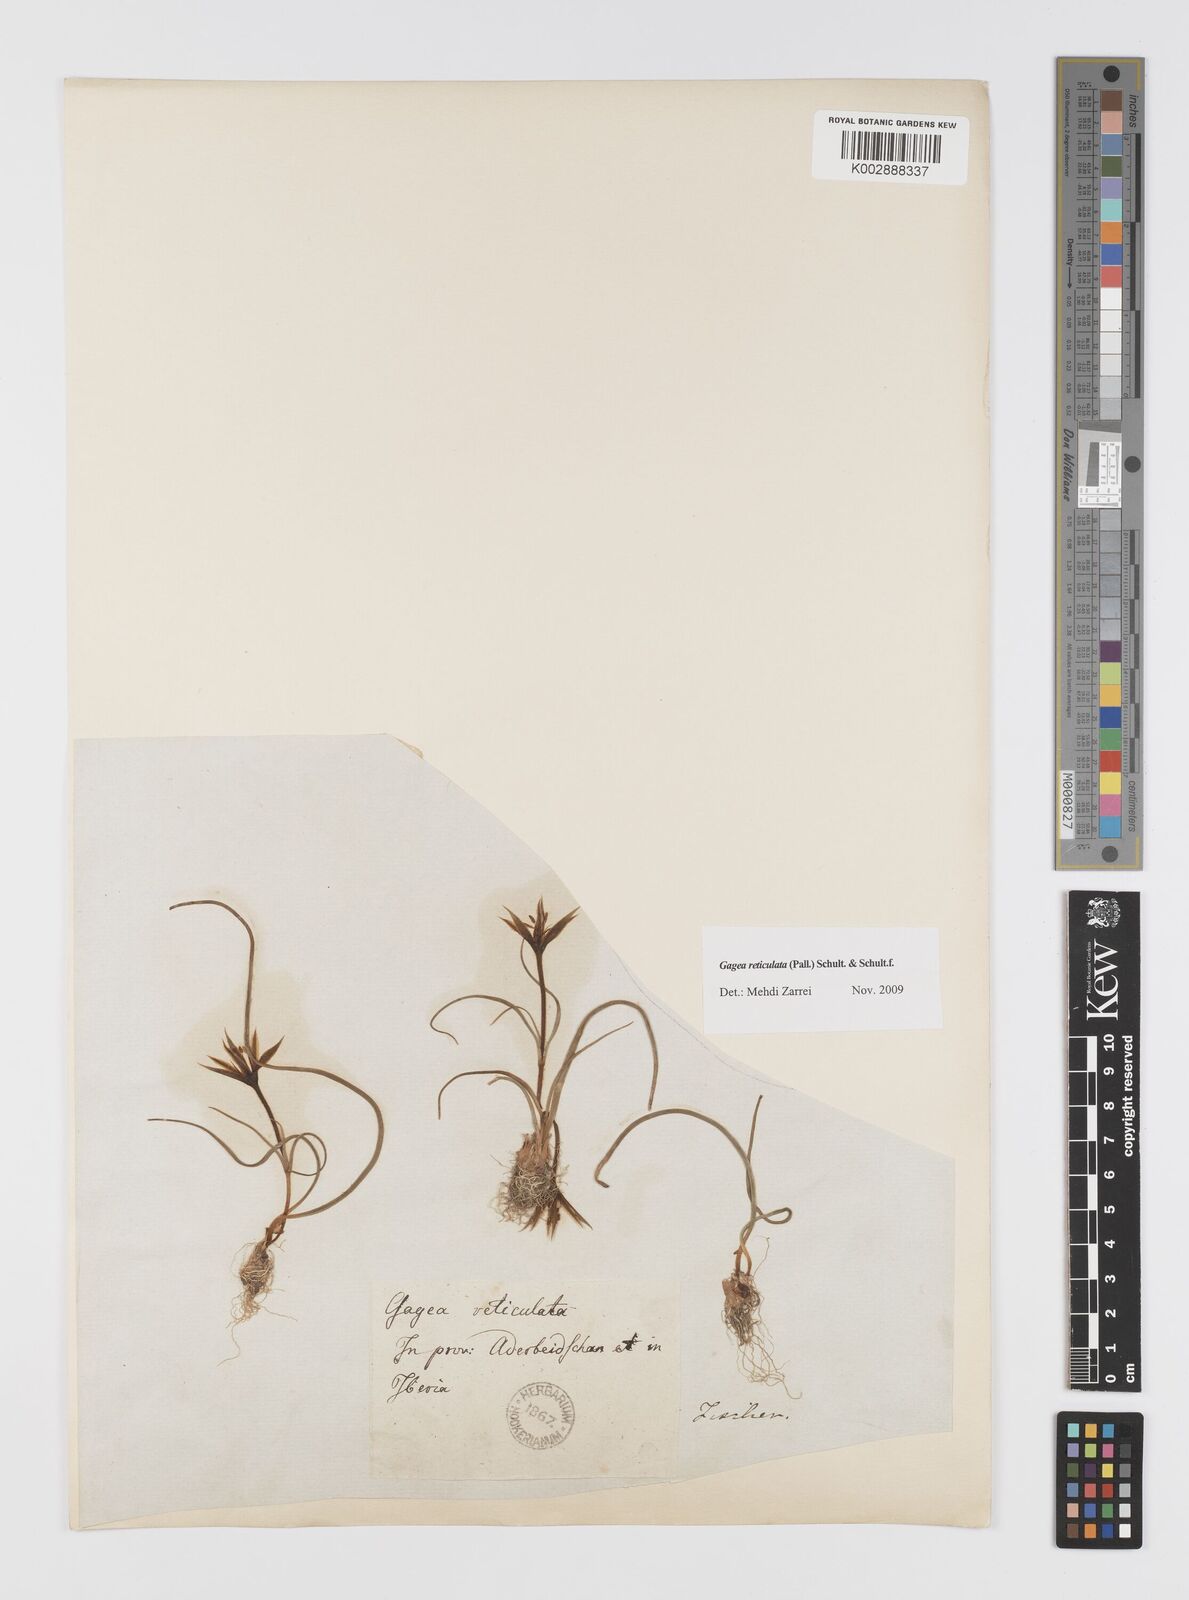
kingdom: Plantae
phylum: Tracheophyta
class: Liliopsida
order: Liliales
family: Liliaceae
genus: Gagea
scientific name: Gagea reticulata
